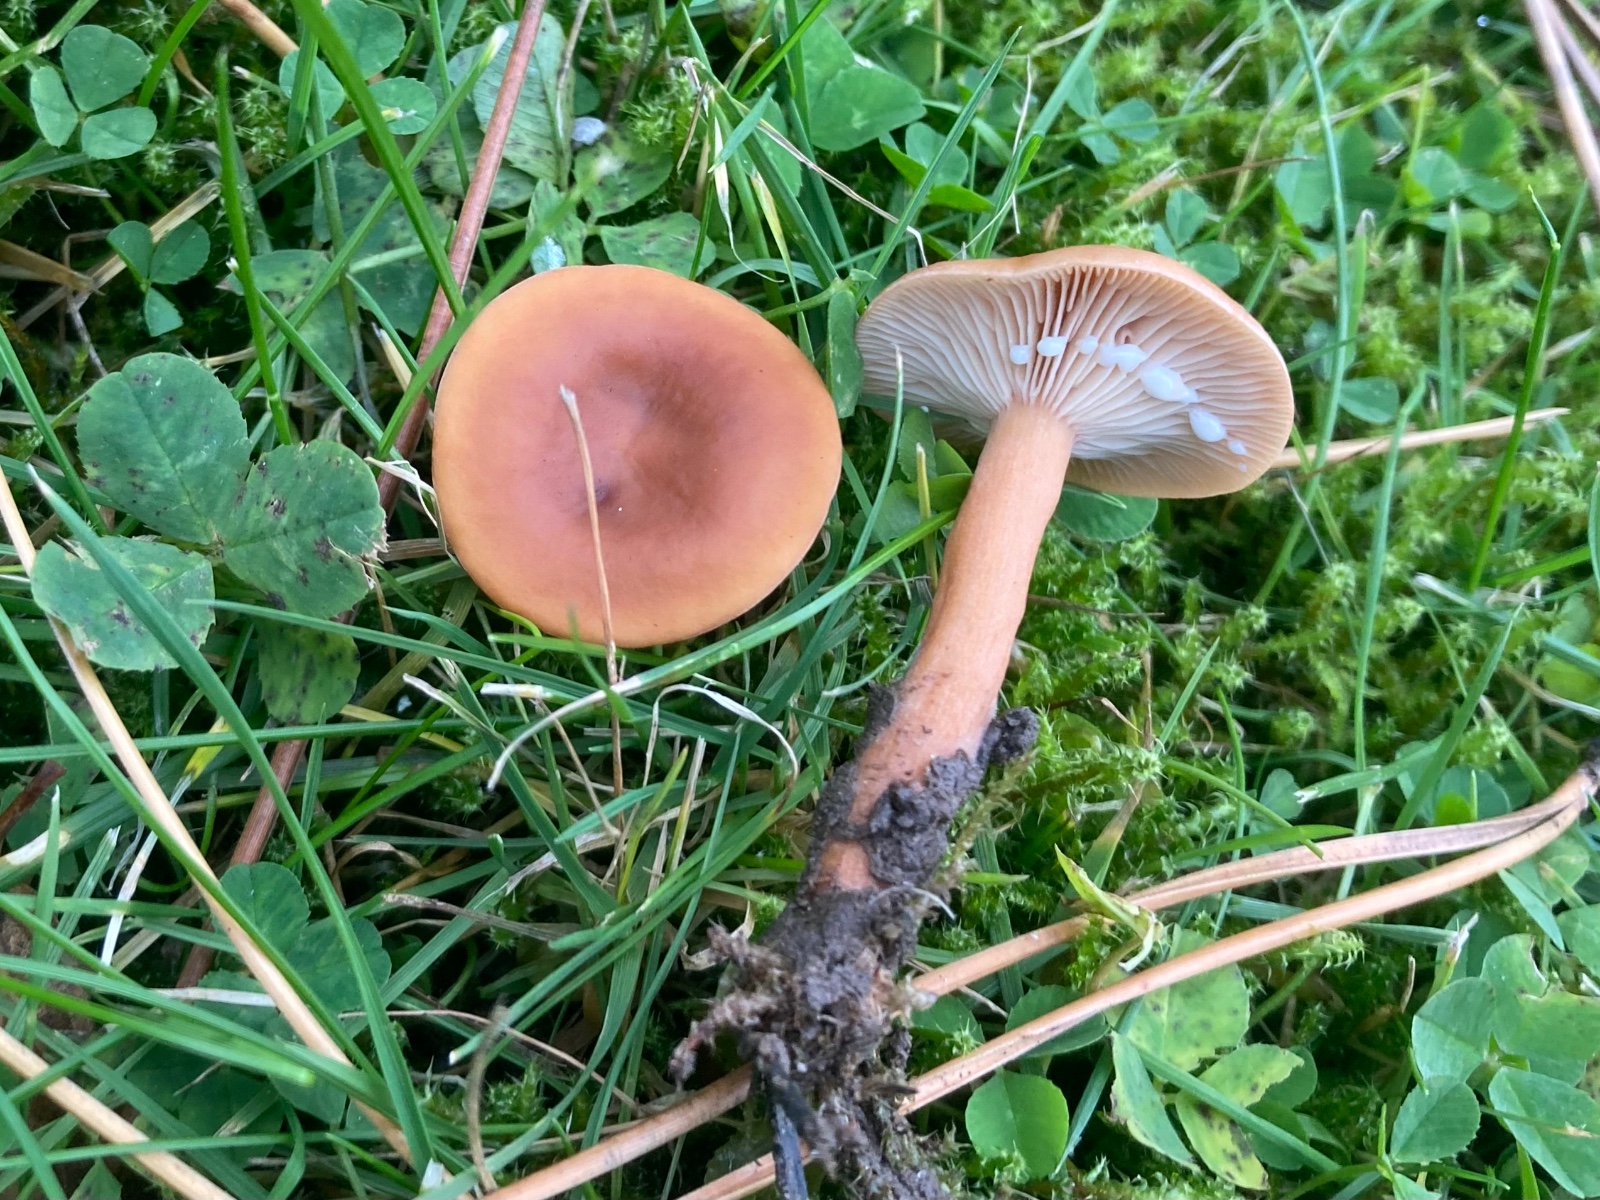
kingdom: Fungi
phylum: Basidiomycota
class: Agaricomycetes
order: Russulales
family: Russulaceae
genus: Lactarius
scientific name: Lactarius tabidus
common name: rynket mælkehat
